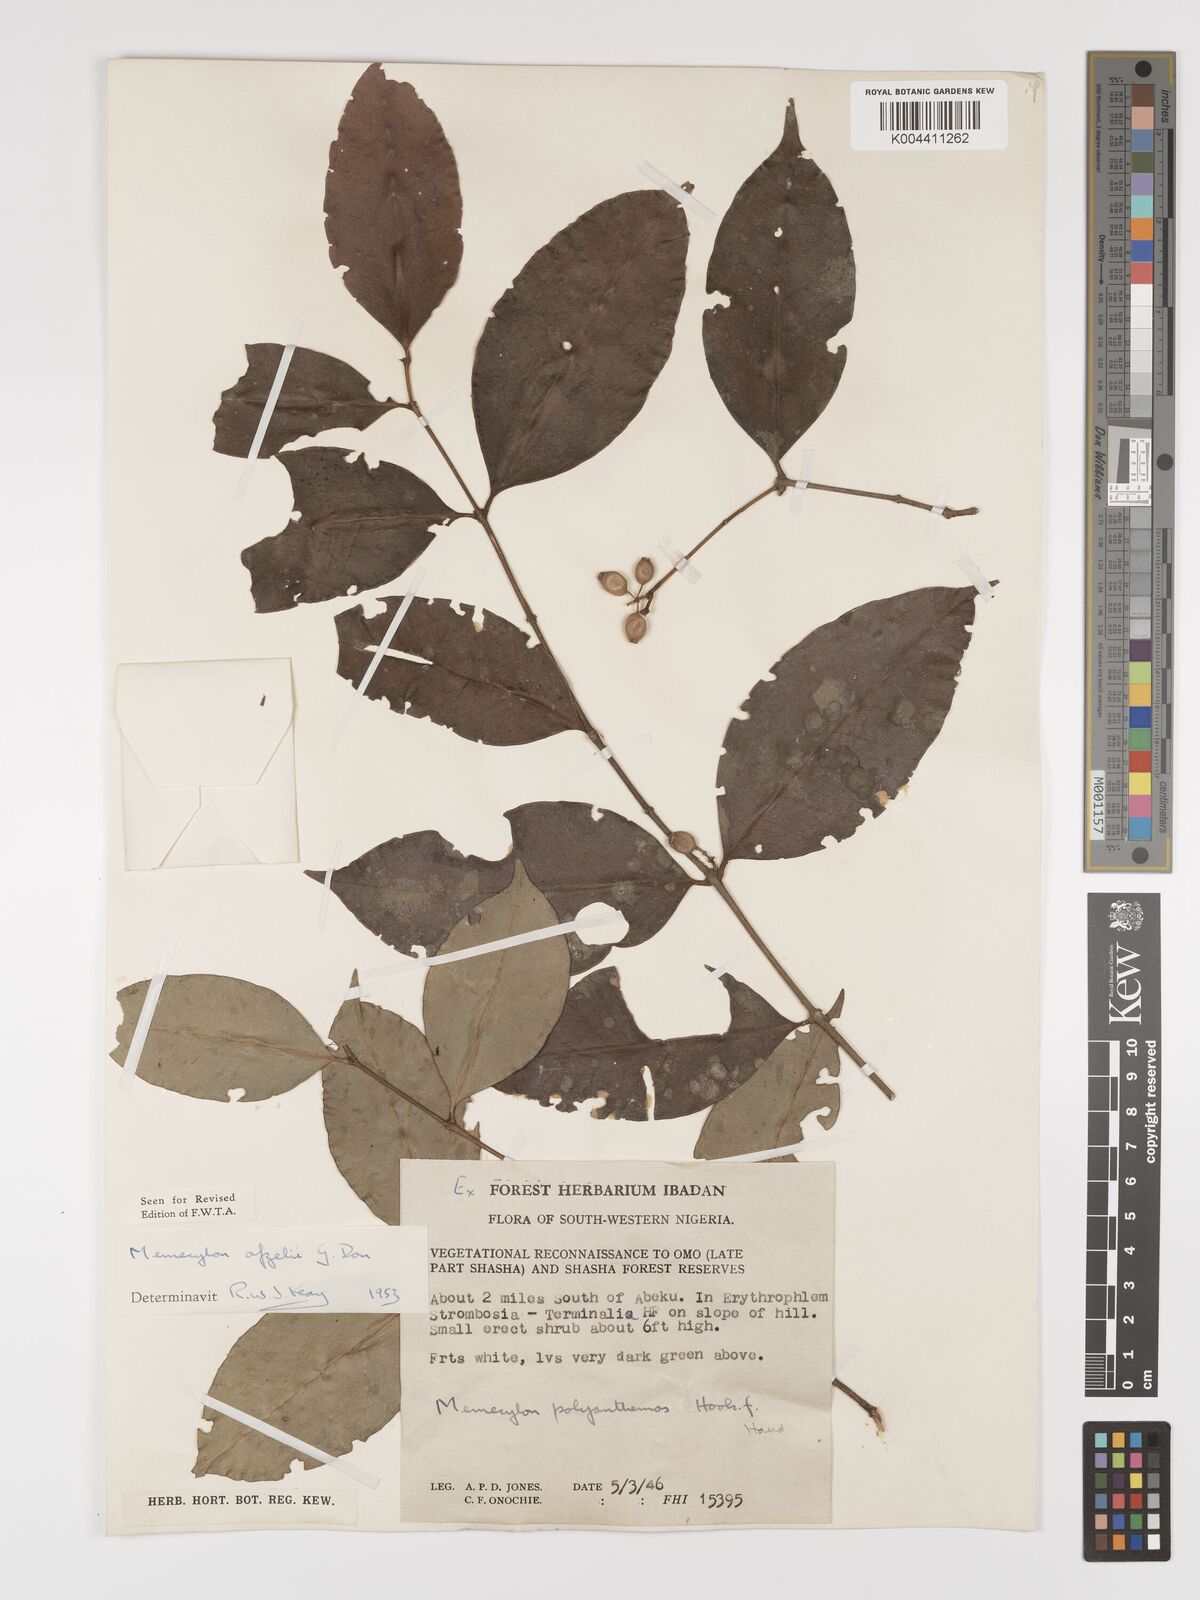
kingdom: Plantae
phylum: Tracheophyta
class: Magnoliopsida
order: Myrtales
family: Melastomataceae
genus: Memecylon
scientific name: Memecylon afzelii
